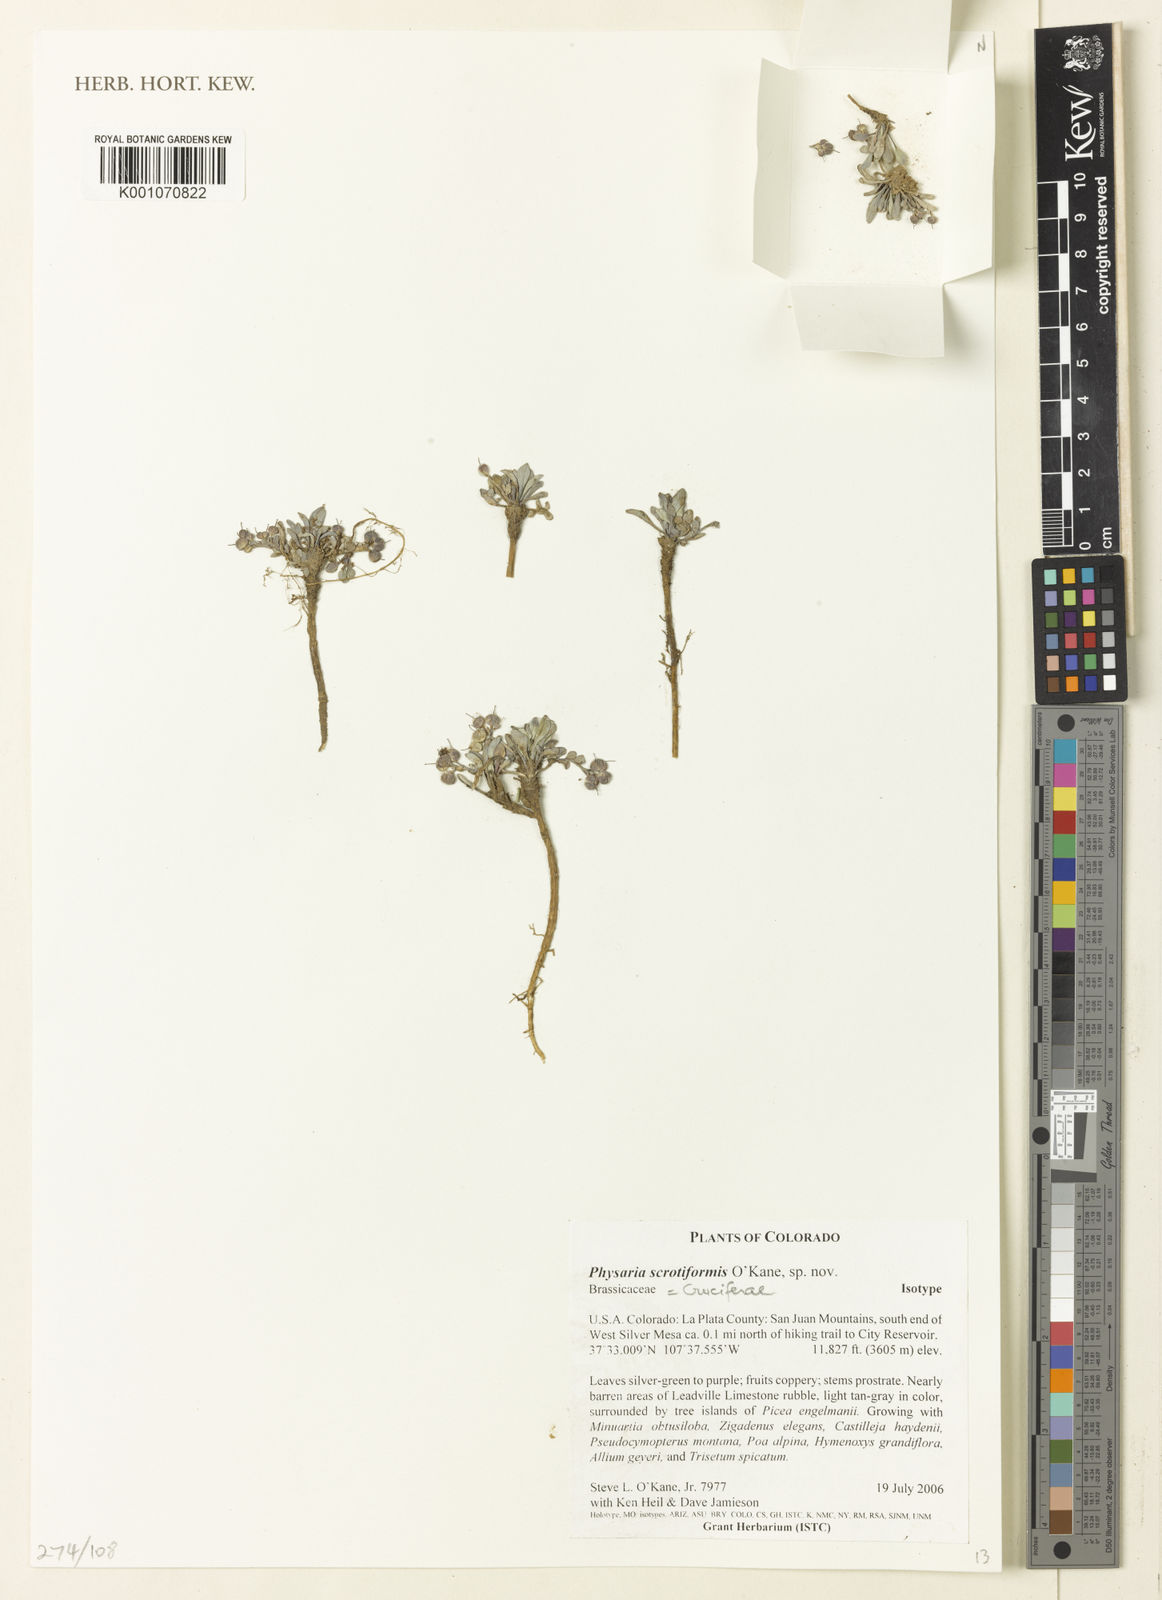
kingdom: Plantae
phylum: Tracheophyta
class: Magnoliopsida
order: Brassicales
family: Brassicaceae
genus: Physaria
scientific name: Physaria scrotiformis
